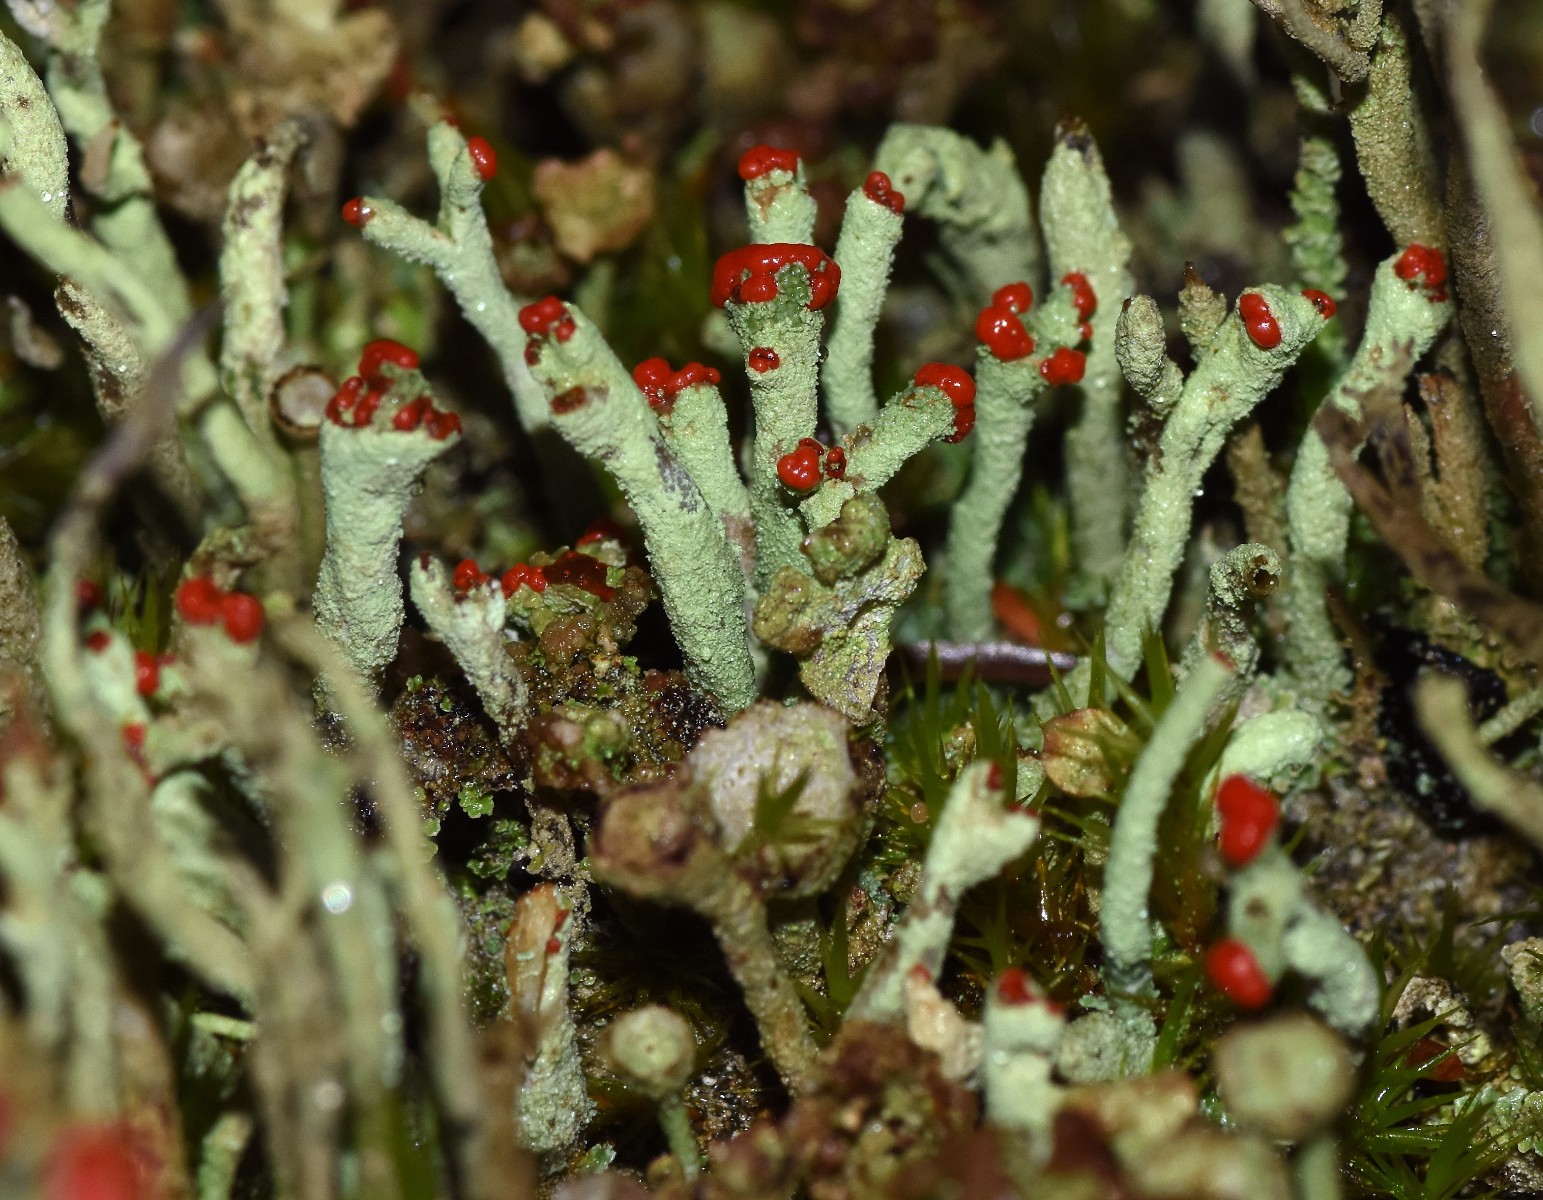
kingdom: Fungi
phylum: Ascomycota
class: Lecanoromycetes
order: Lecanorales
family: Cladoniaceae
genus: Cladonia
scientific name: Cladonia floerkeana
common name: lakrød bægerlav
